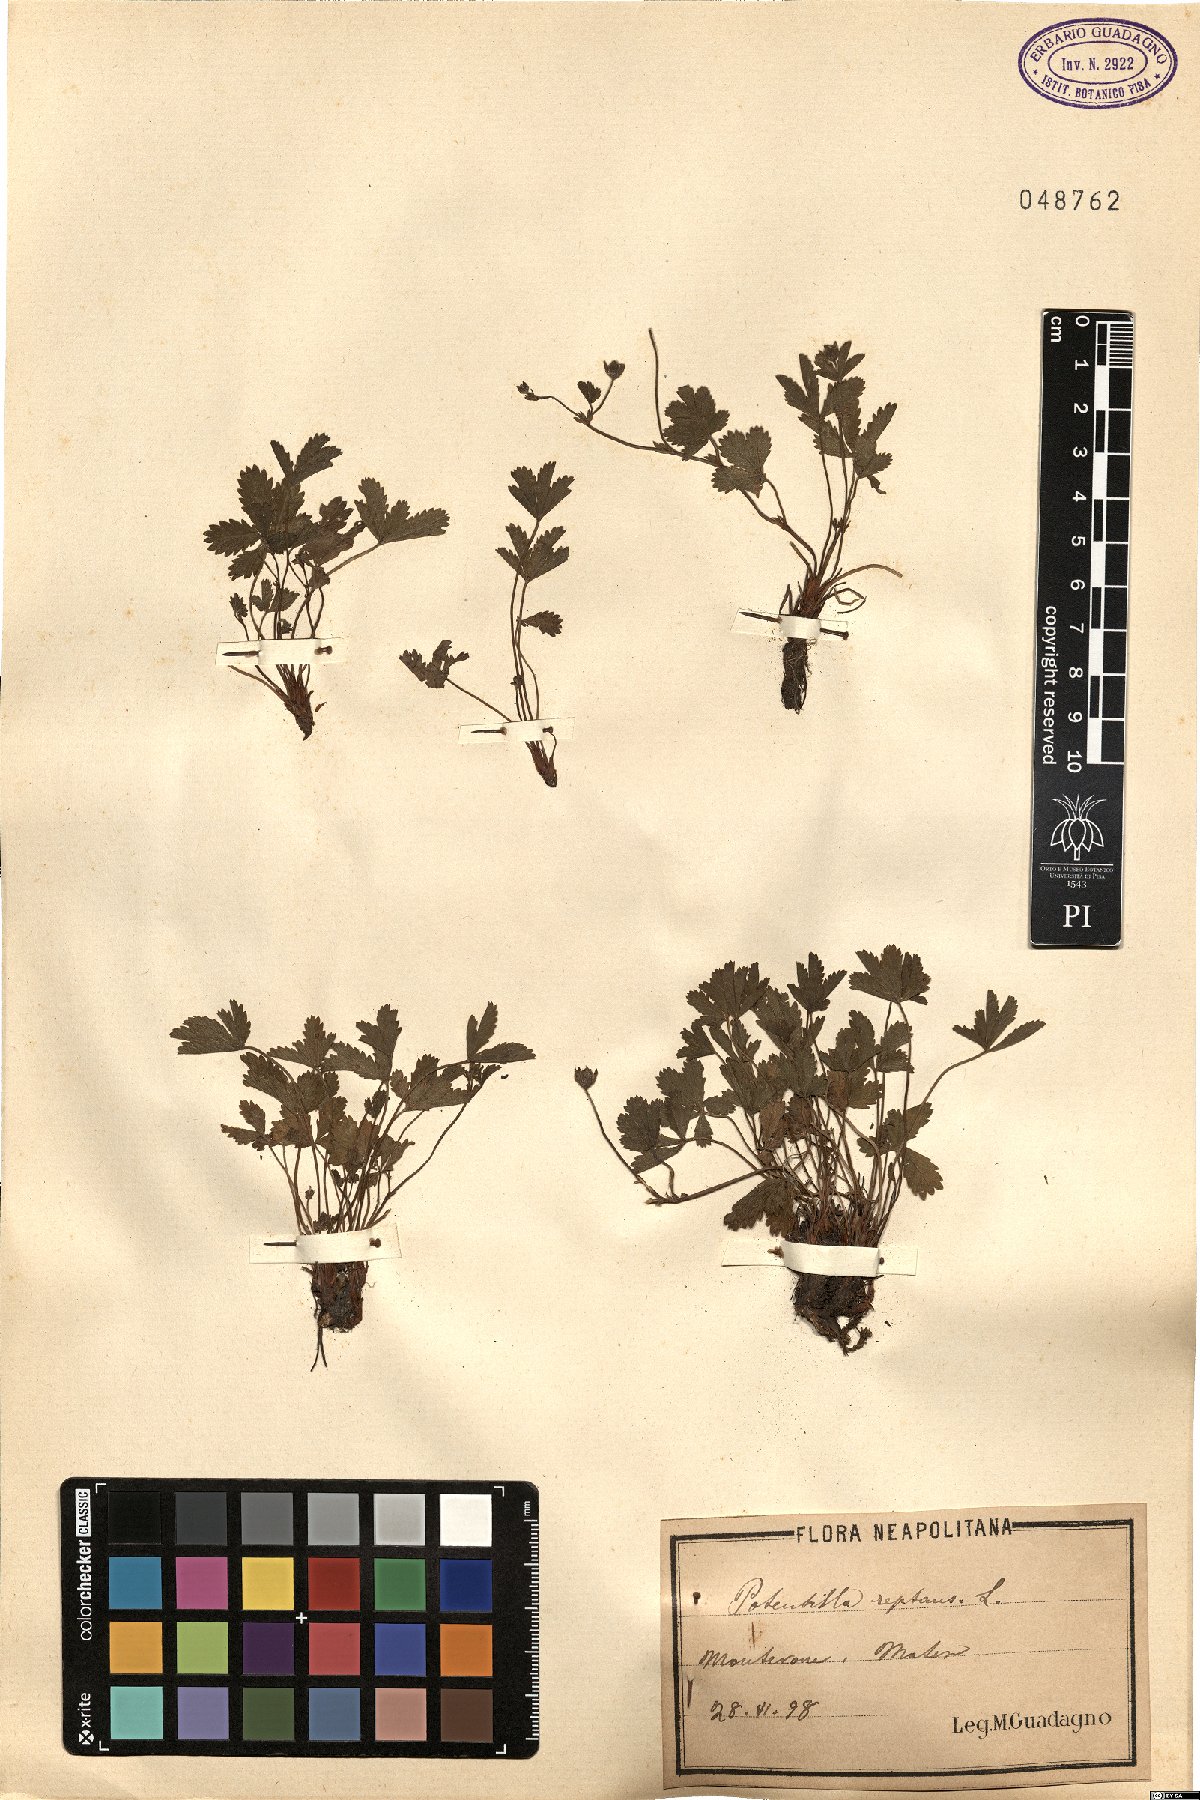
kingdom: Plantae
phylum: Tracheophyta
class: Magnoliopsida
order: Rosales
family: Rosaceae
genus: Potentilla
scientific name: Potentilla reptans
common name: Creeping cinquefoil
